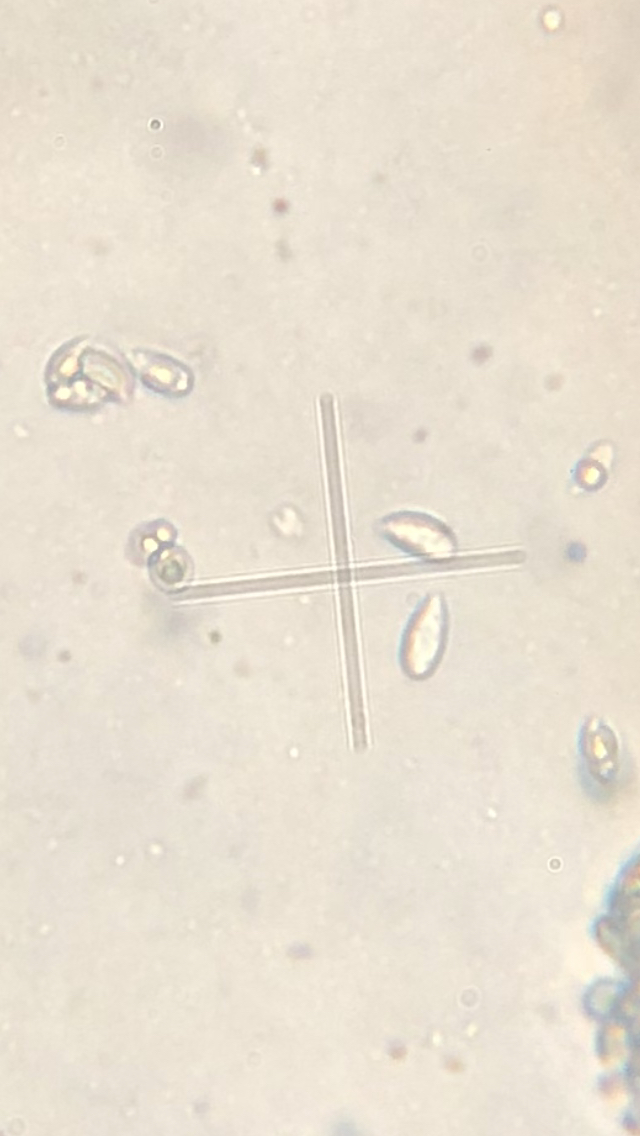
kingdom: Fungi
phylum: Basidiomycota
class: Agaricomycetes
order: Agaricales
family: Omphalotaceae
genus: Collybiopsis
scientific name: Collybiopsis ramealis
